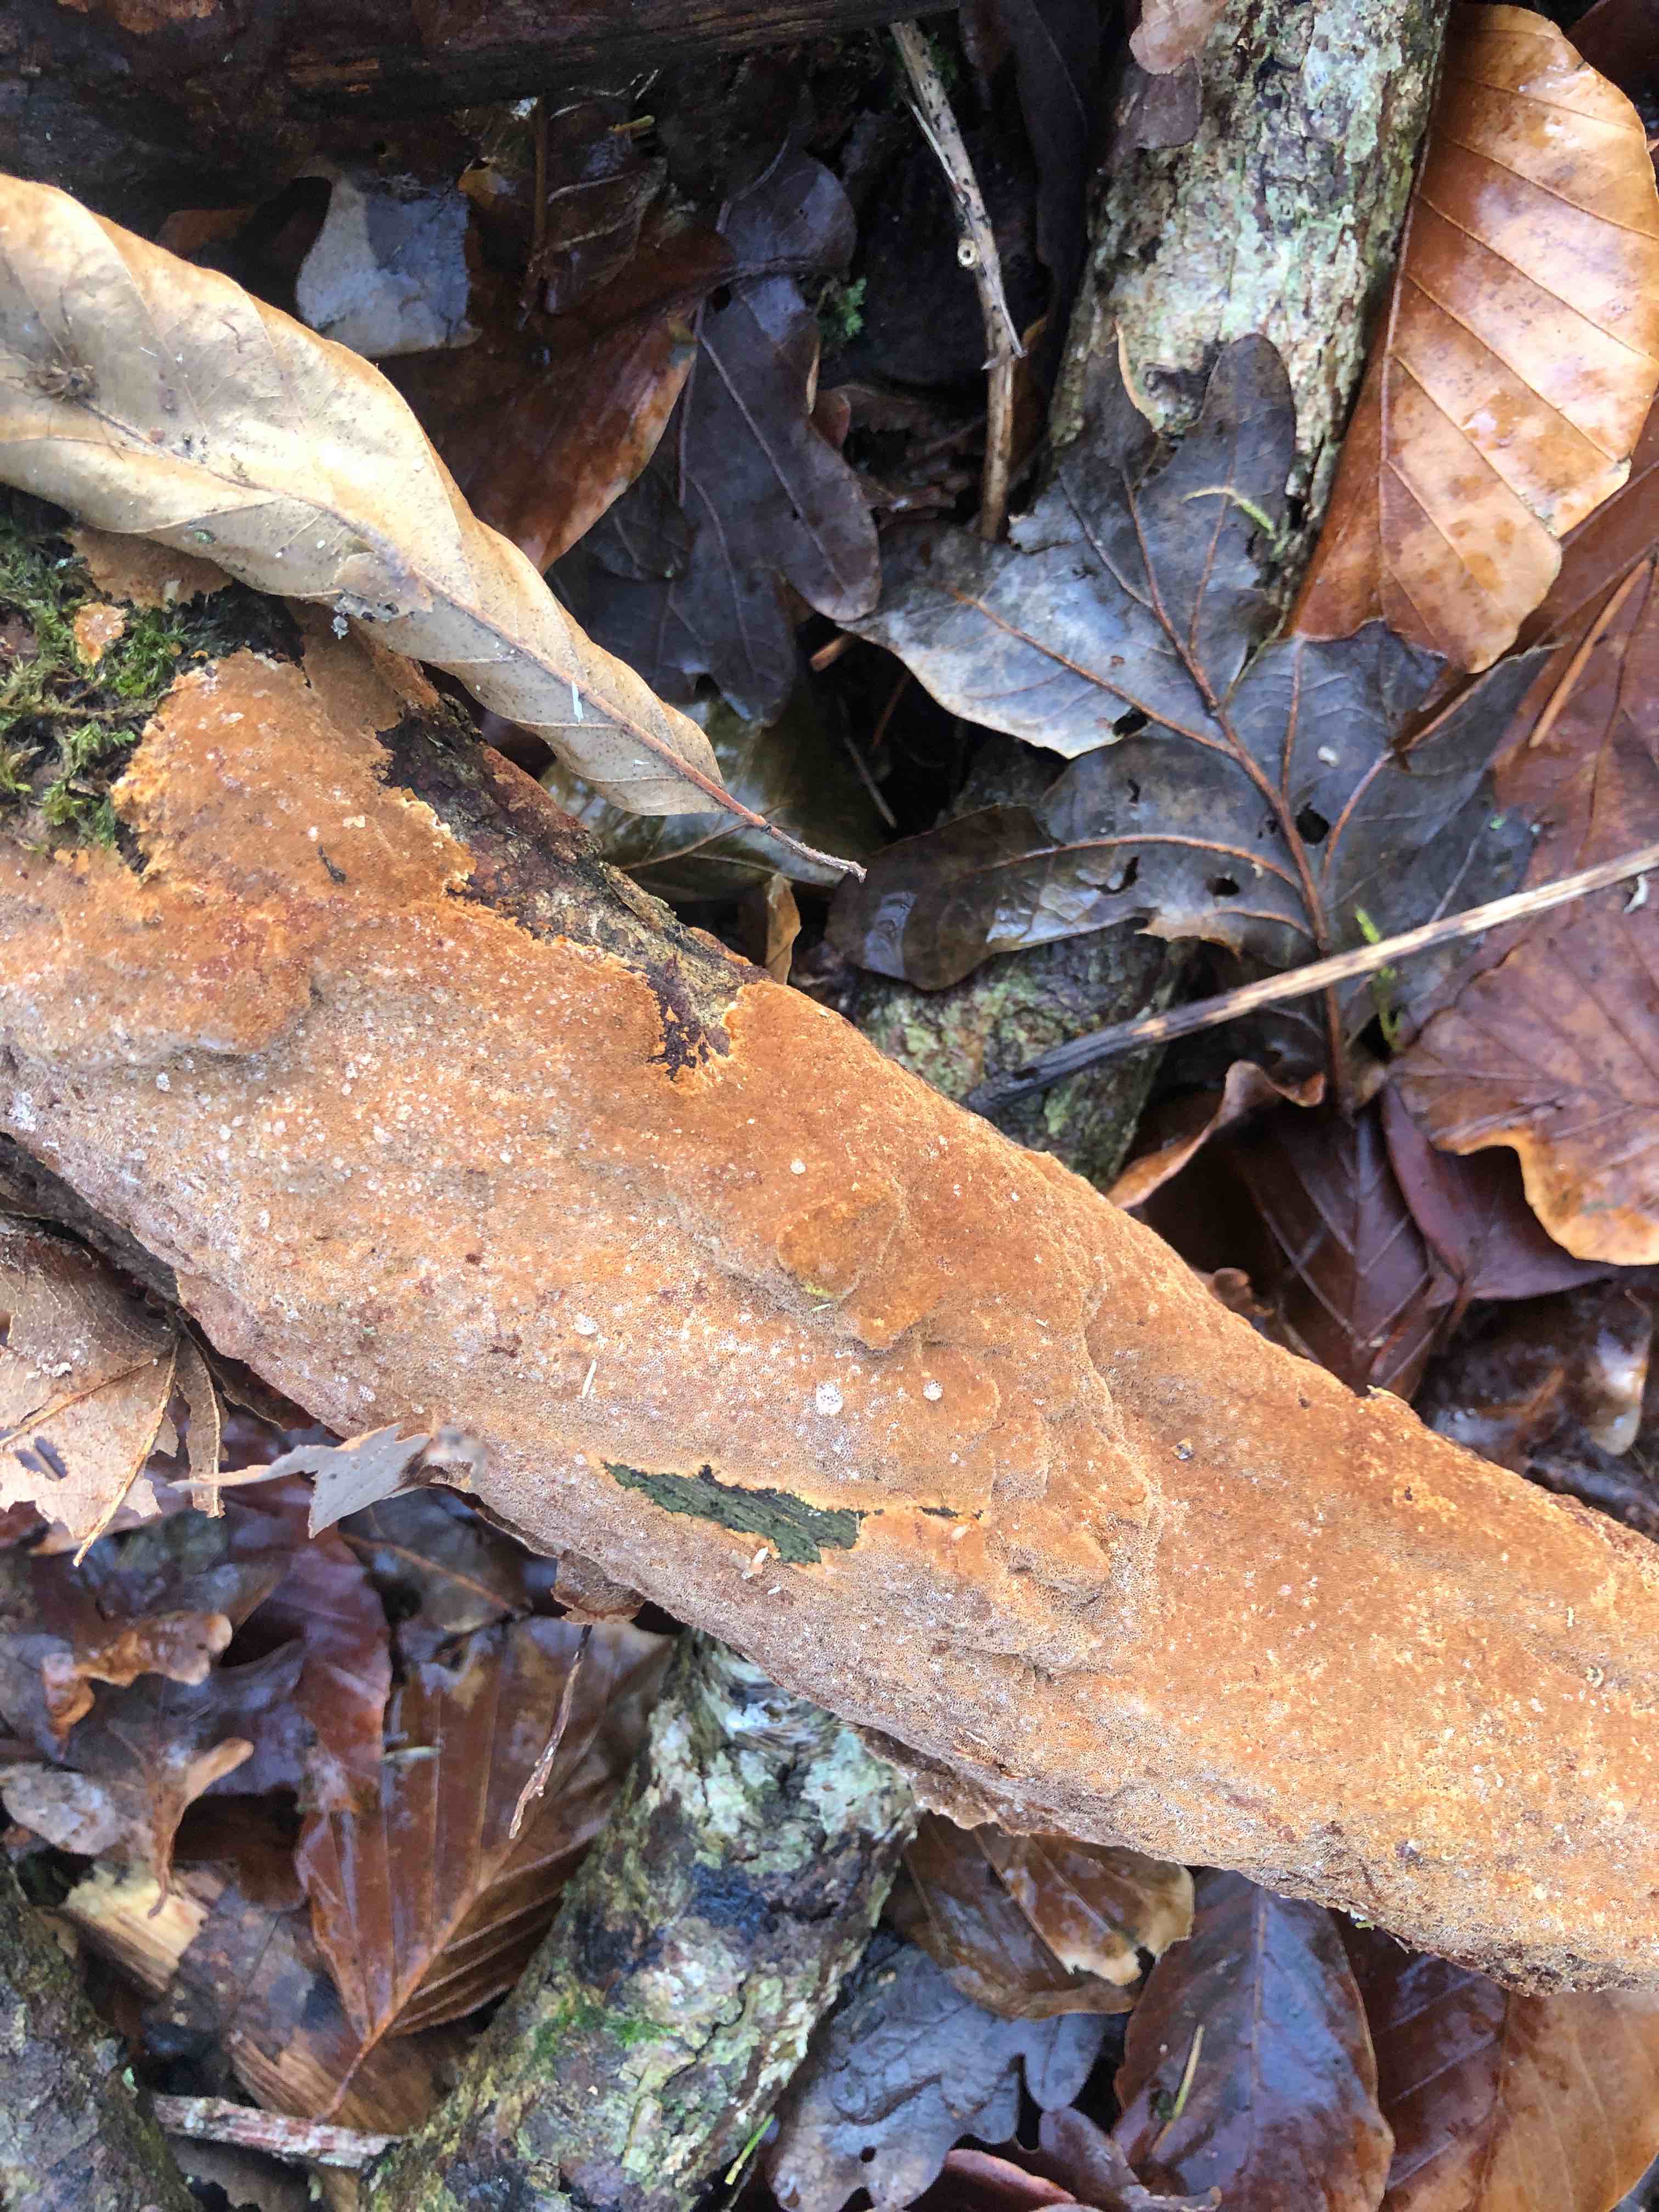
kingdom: Fungi
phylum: Basidiomycota
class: Agaricomycetes
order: Hymenochaetales
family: Hymenochaetaceae
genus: Fuscoporia
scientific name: Fuscoporia ferrea
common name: skorpe-ildporesvamp
